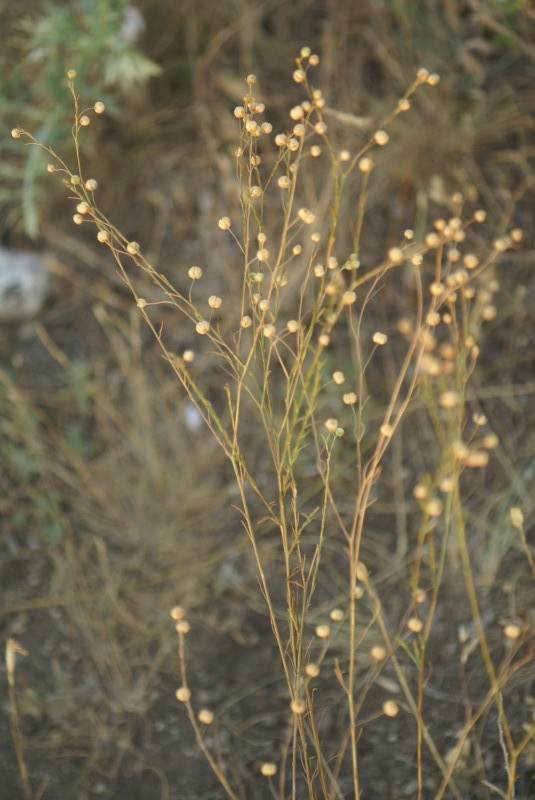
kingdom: Plantae
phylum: Tracheophyta
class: Magnoliopsida
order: Malpighiales
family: Linaceae
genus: Linum
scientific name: Linum usitatissimum
